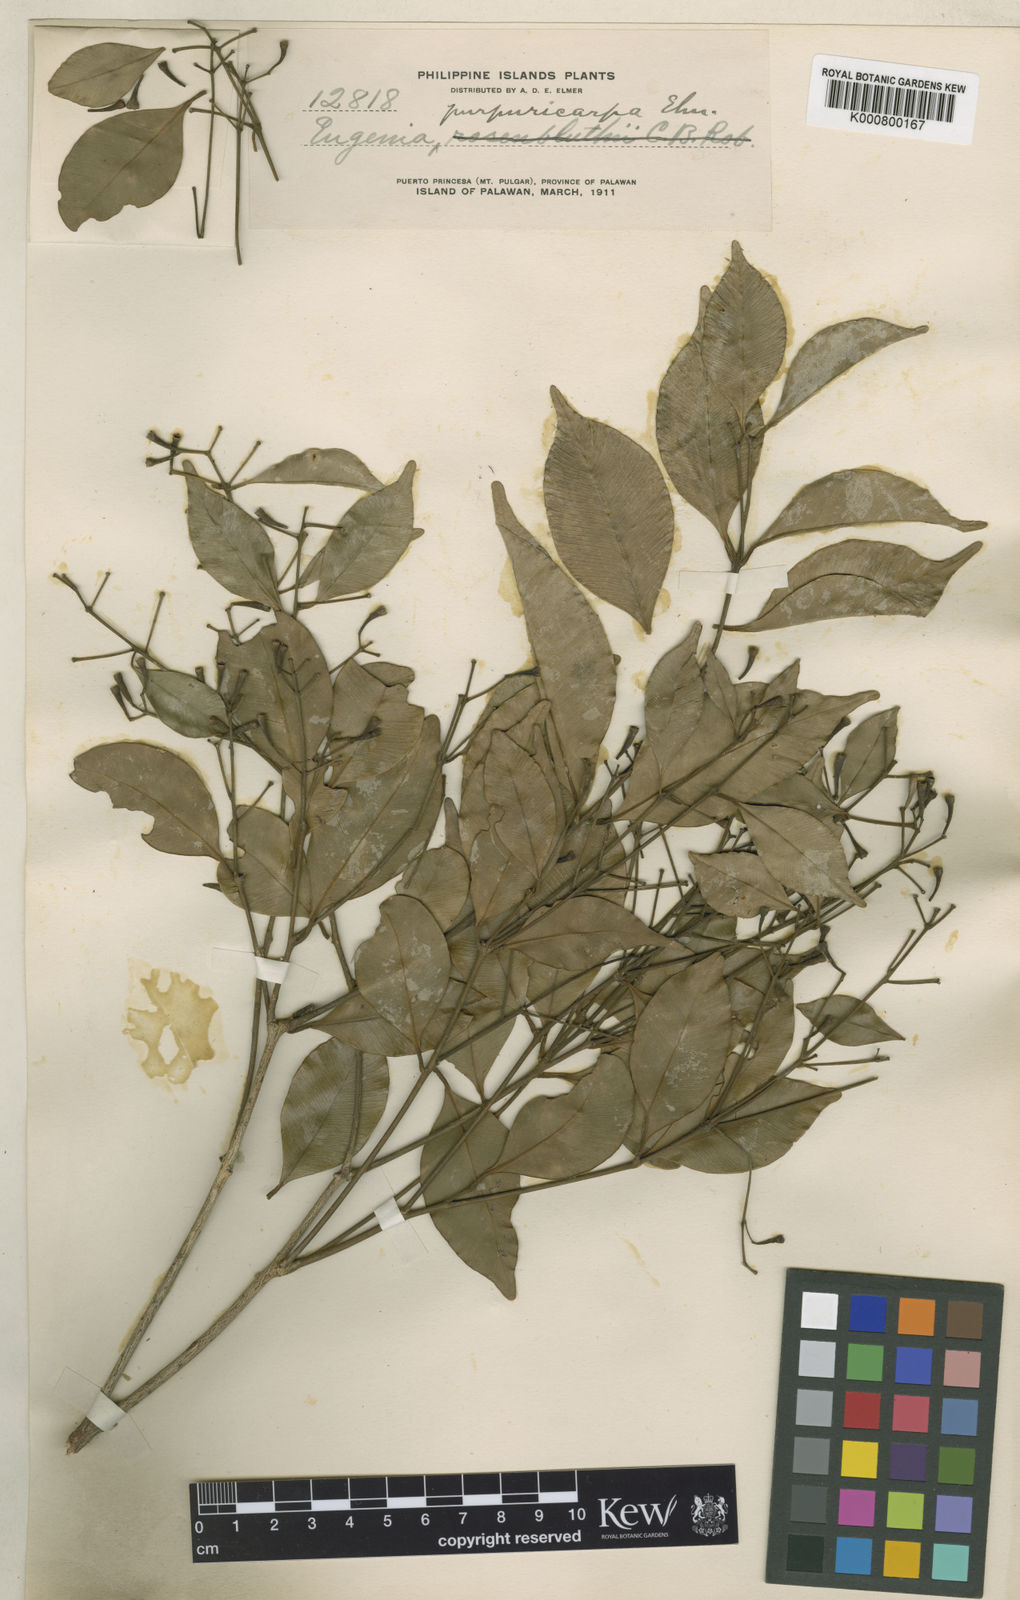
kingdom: Plantae
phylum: Tracheophyta
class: Magnoliopsida
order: Myrtales
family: Myrtaceae
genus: Syzygium
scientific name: Syzygium attenuatum
